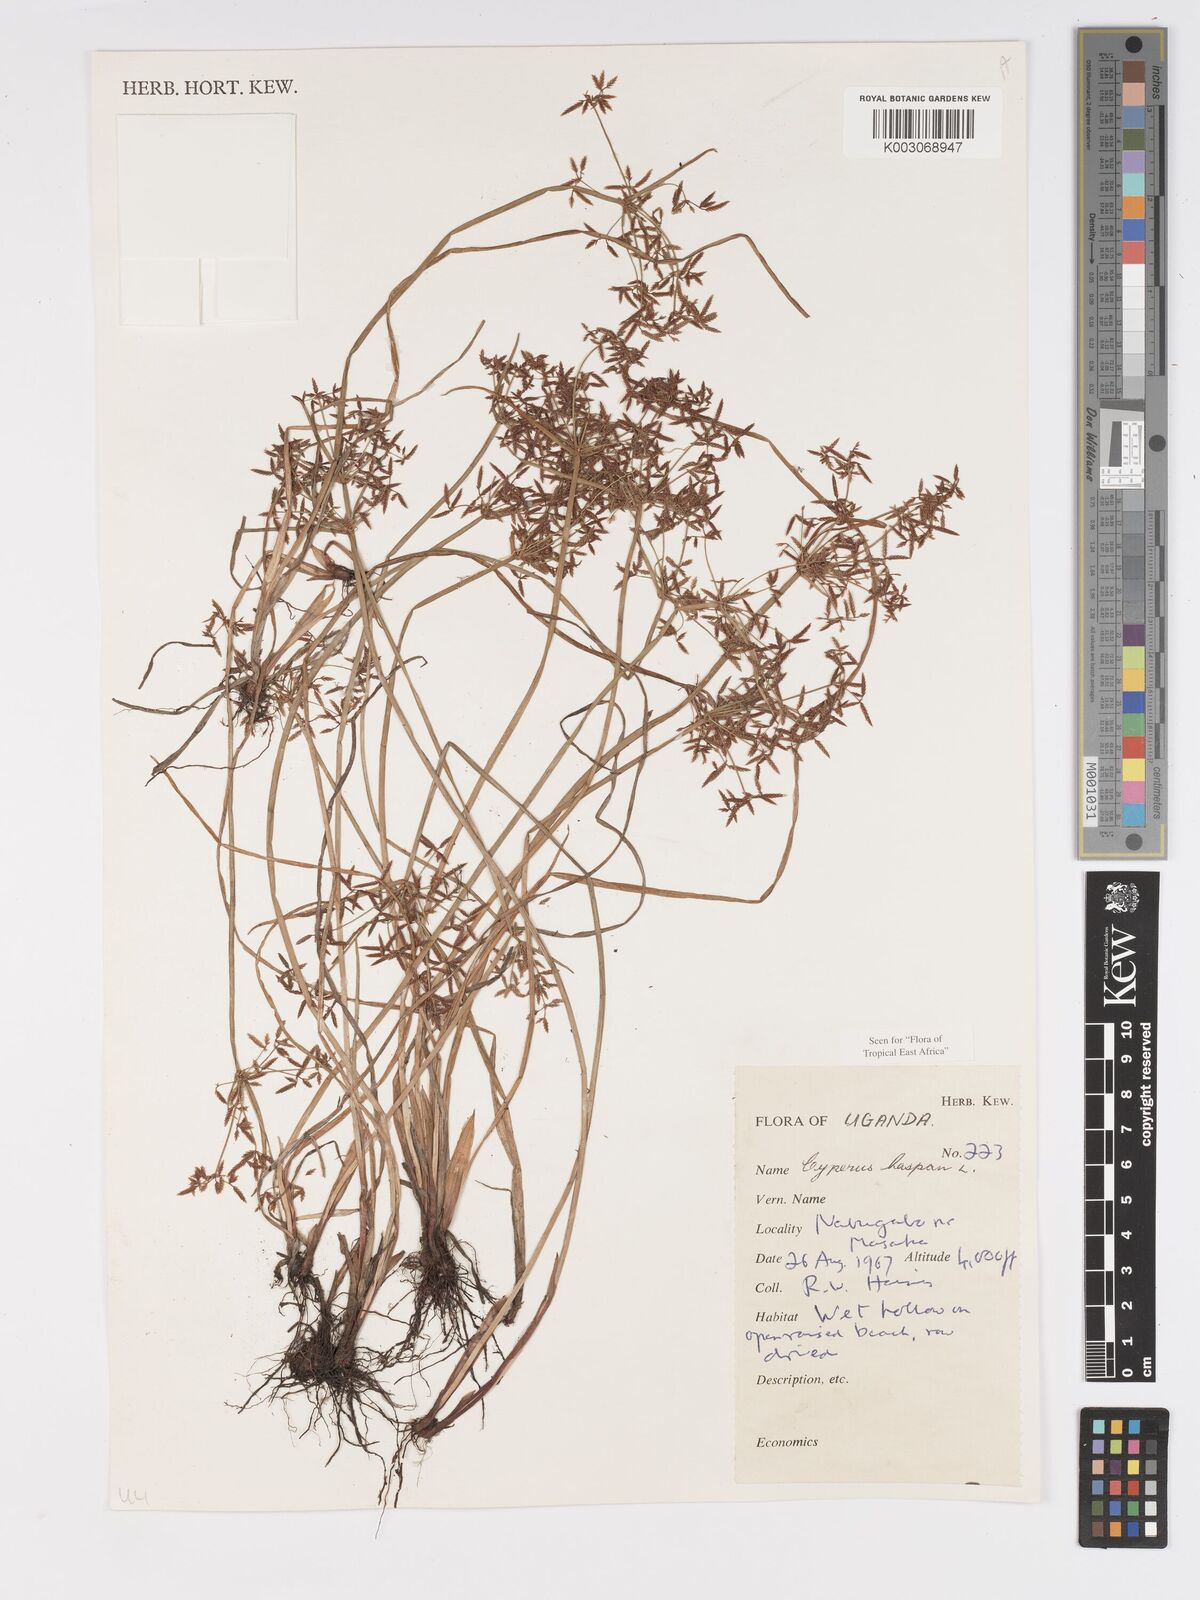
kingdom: Plantae
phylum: Tracheophyta
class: Liliopsida
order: Poales
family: Cyperaceae
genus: Cyperus
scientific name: Cyperus haspan
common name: Haspan flatsedge
